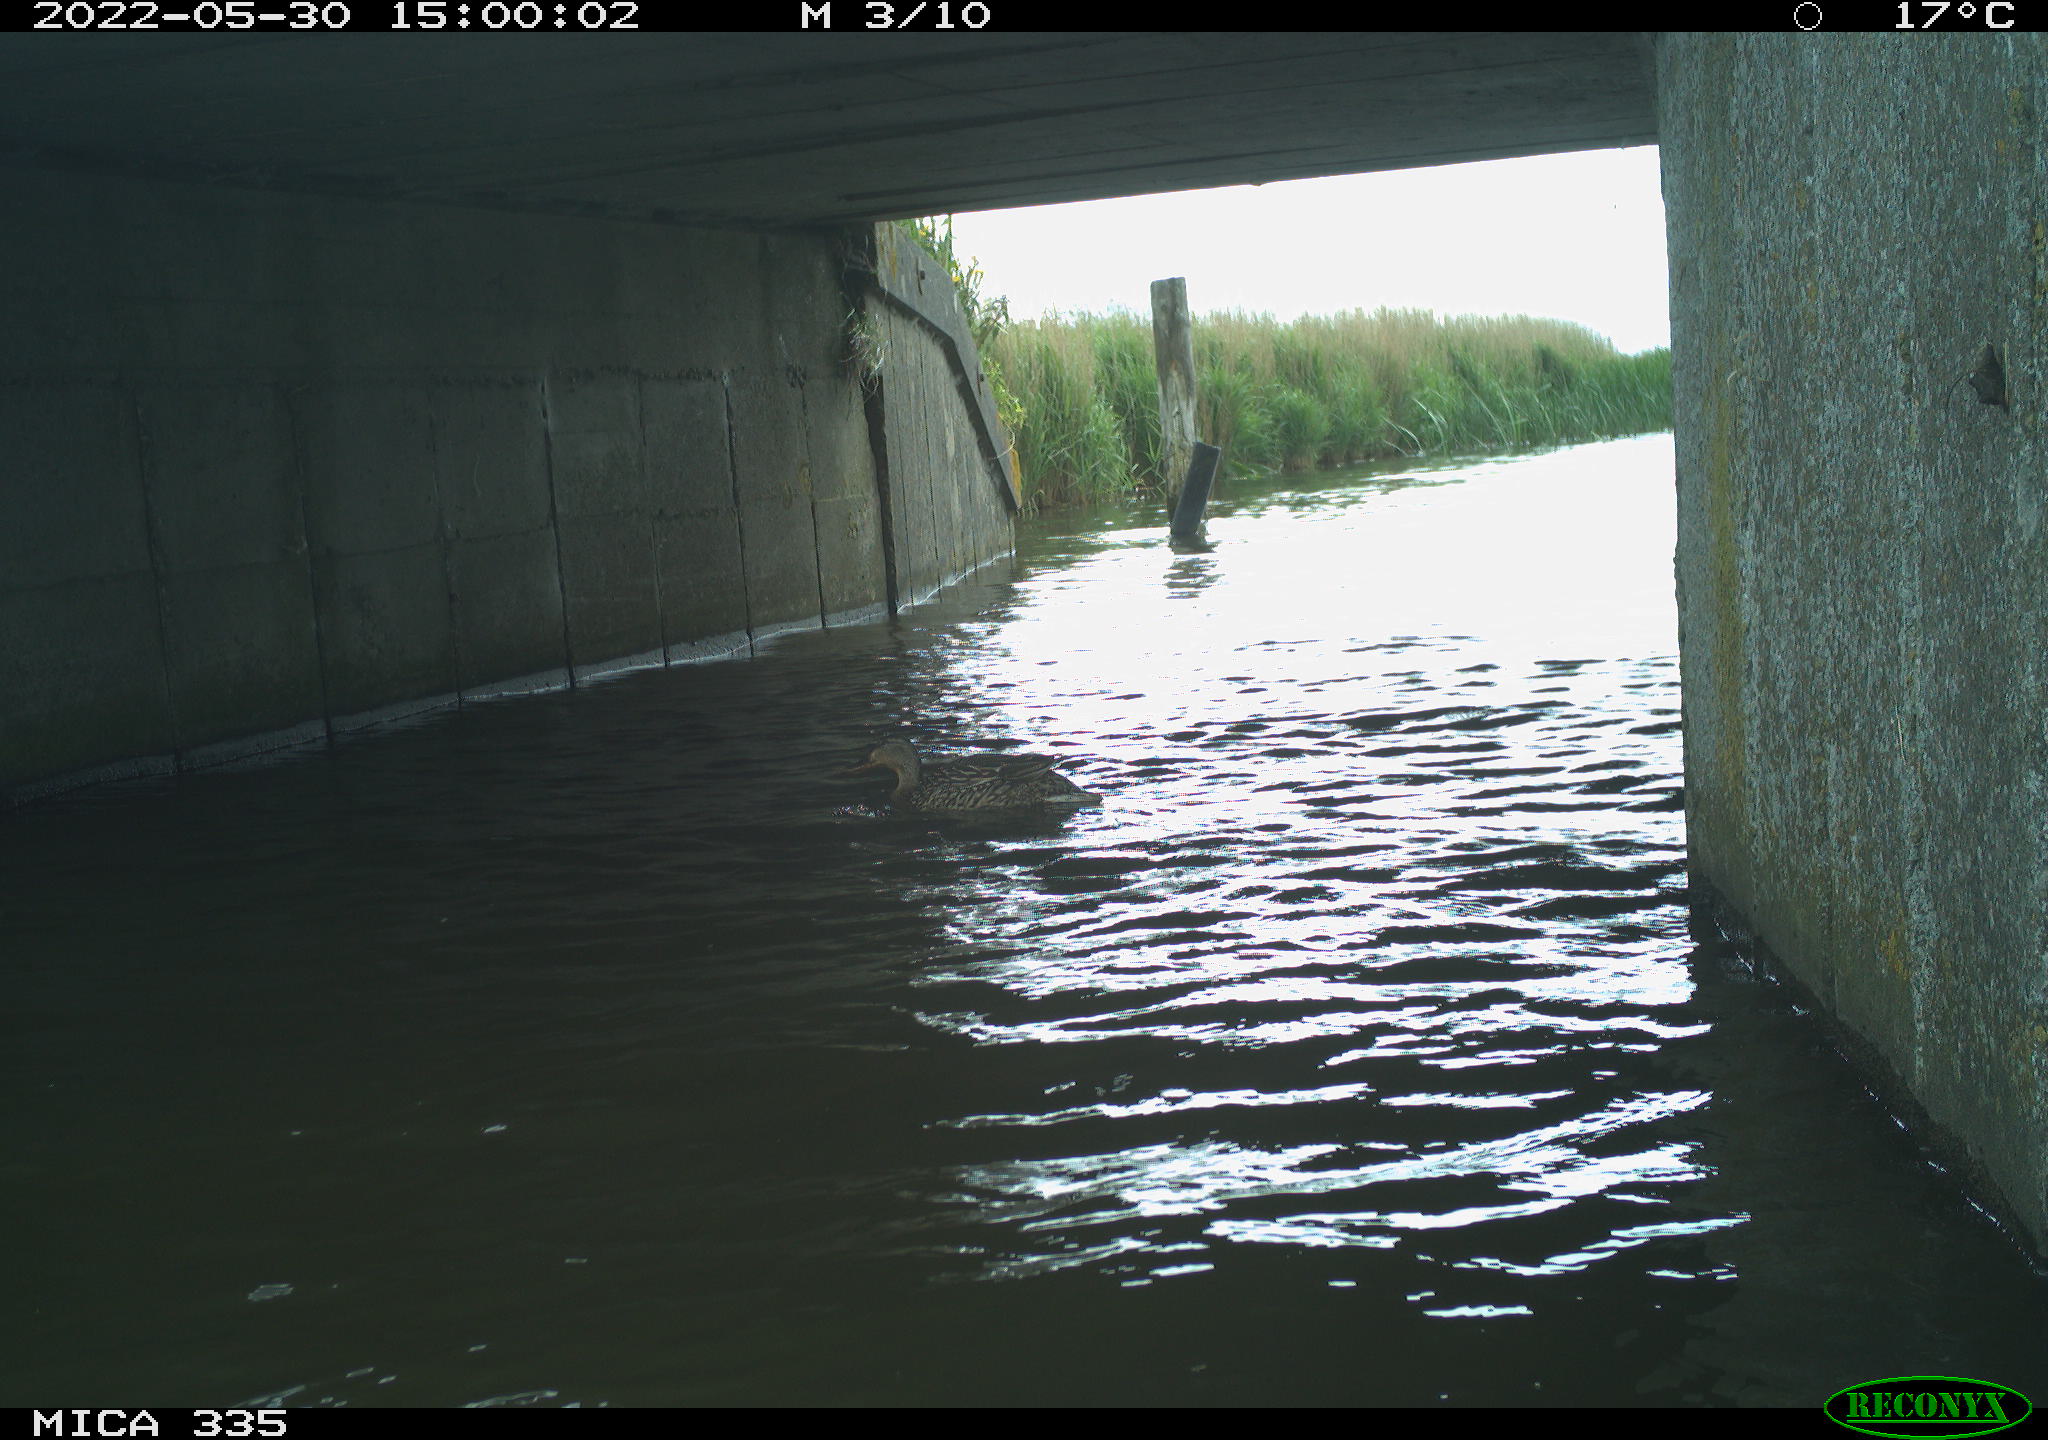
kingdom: Animalia
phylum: Chordata
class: Aves
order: Anseriformes
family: Anatidae
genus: Anas
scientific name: Anas platyrhynchos
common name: Mallard
